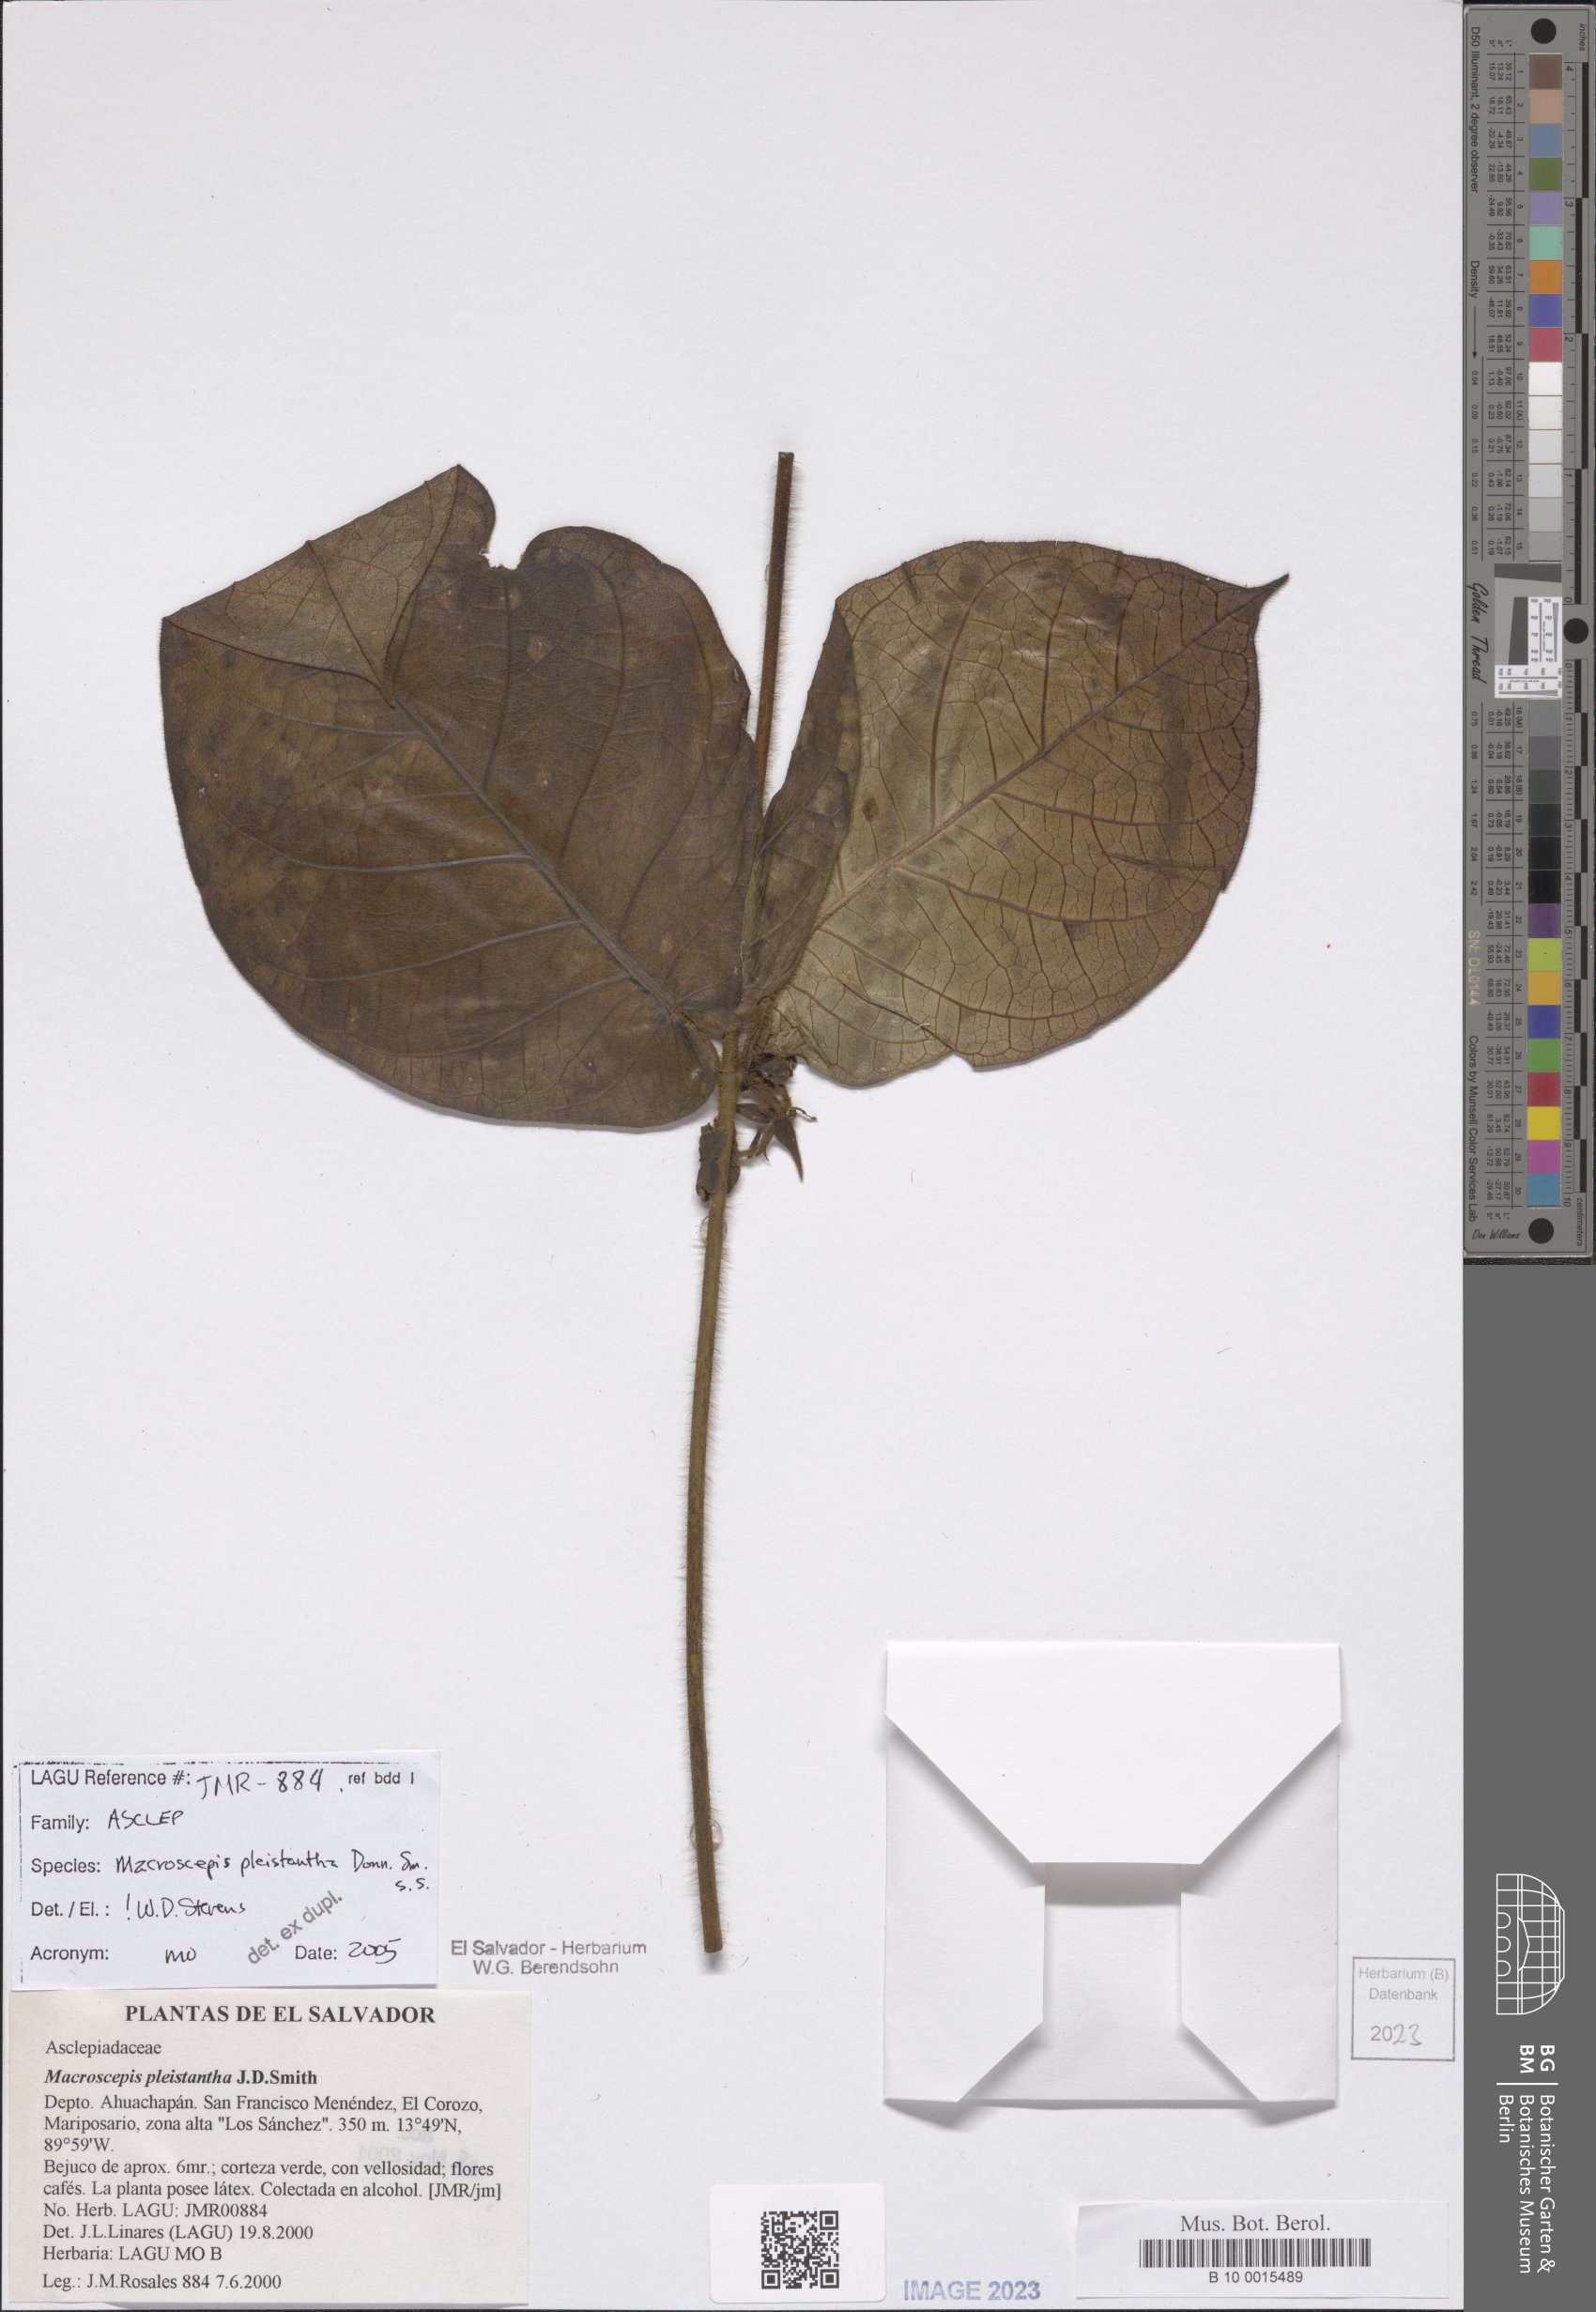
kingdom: Plantae
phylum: Tracheophyta
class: Magnoliopsida
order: Gentianales
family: Apocynaceae
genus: Macroscepis
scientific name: Macroscepis pleistantha
